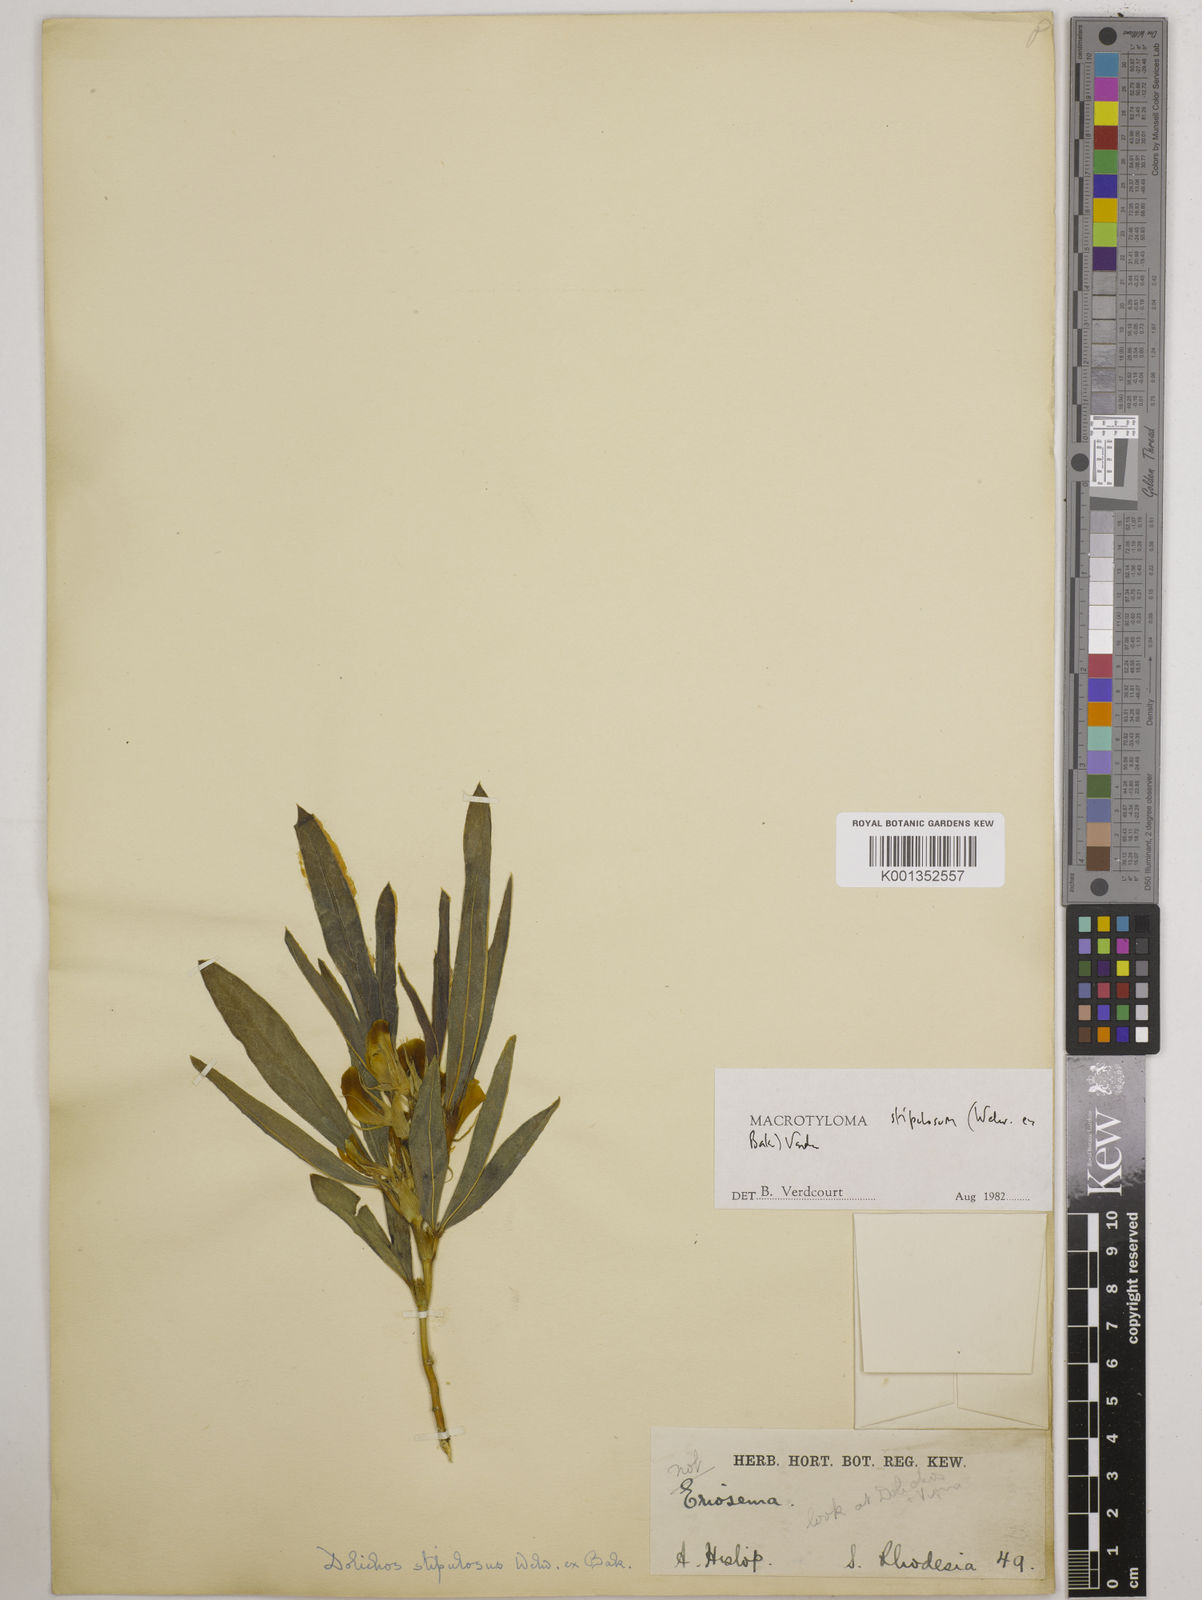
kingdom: Plantae
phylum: Tracheophyta
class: Magnoliopsida
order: Fabales
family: Fabaceae
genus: Macrotyloma
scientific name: Macrotyloma stipulosum
